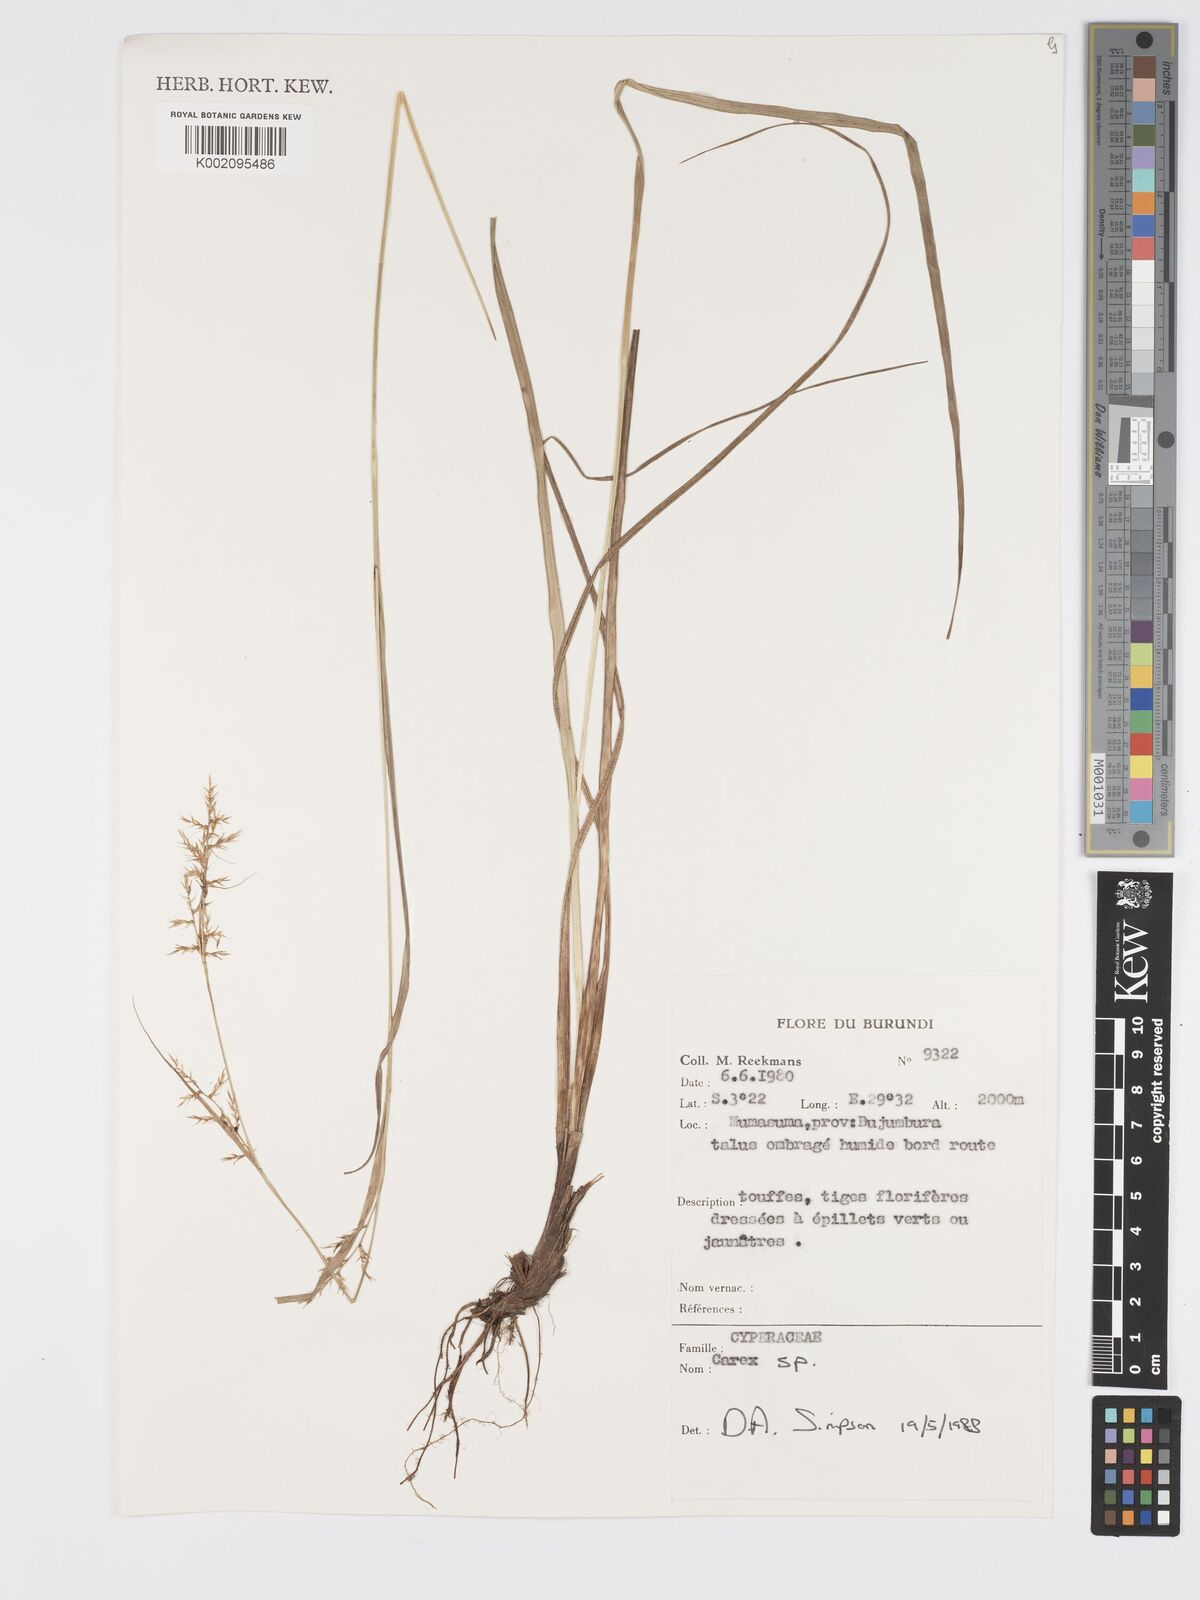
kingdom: Plantae
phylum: Tracheophyta
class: Liliopsida
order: Poales
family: Cyperaceae
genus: Carex
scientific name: Carex
